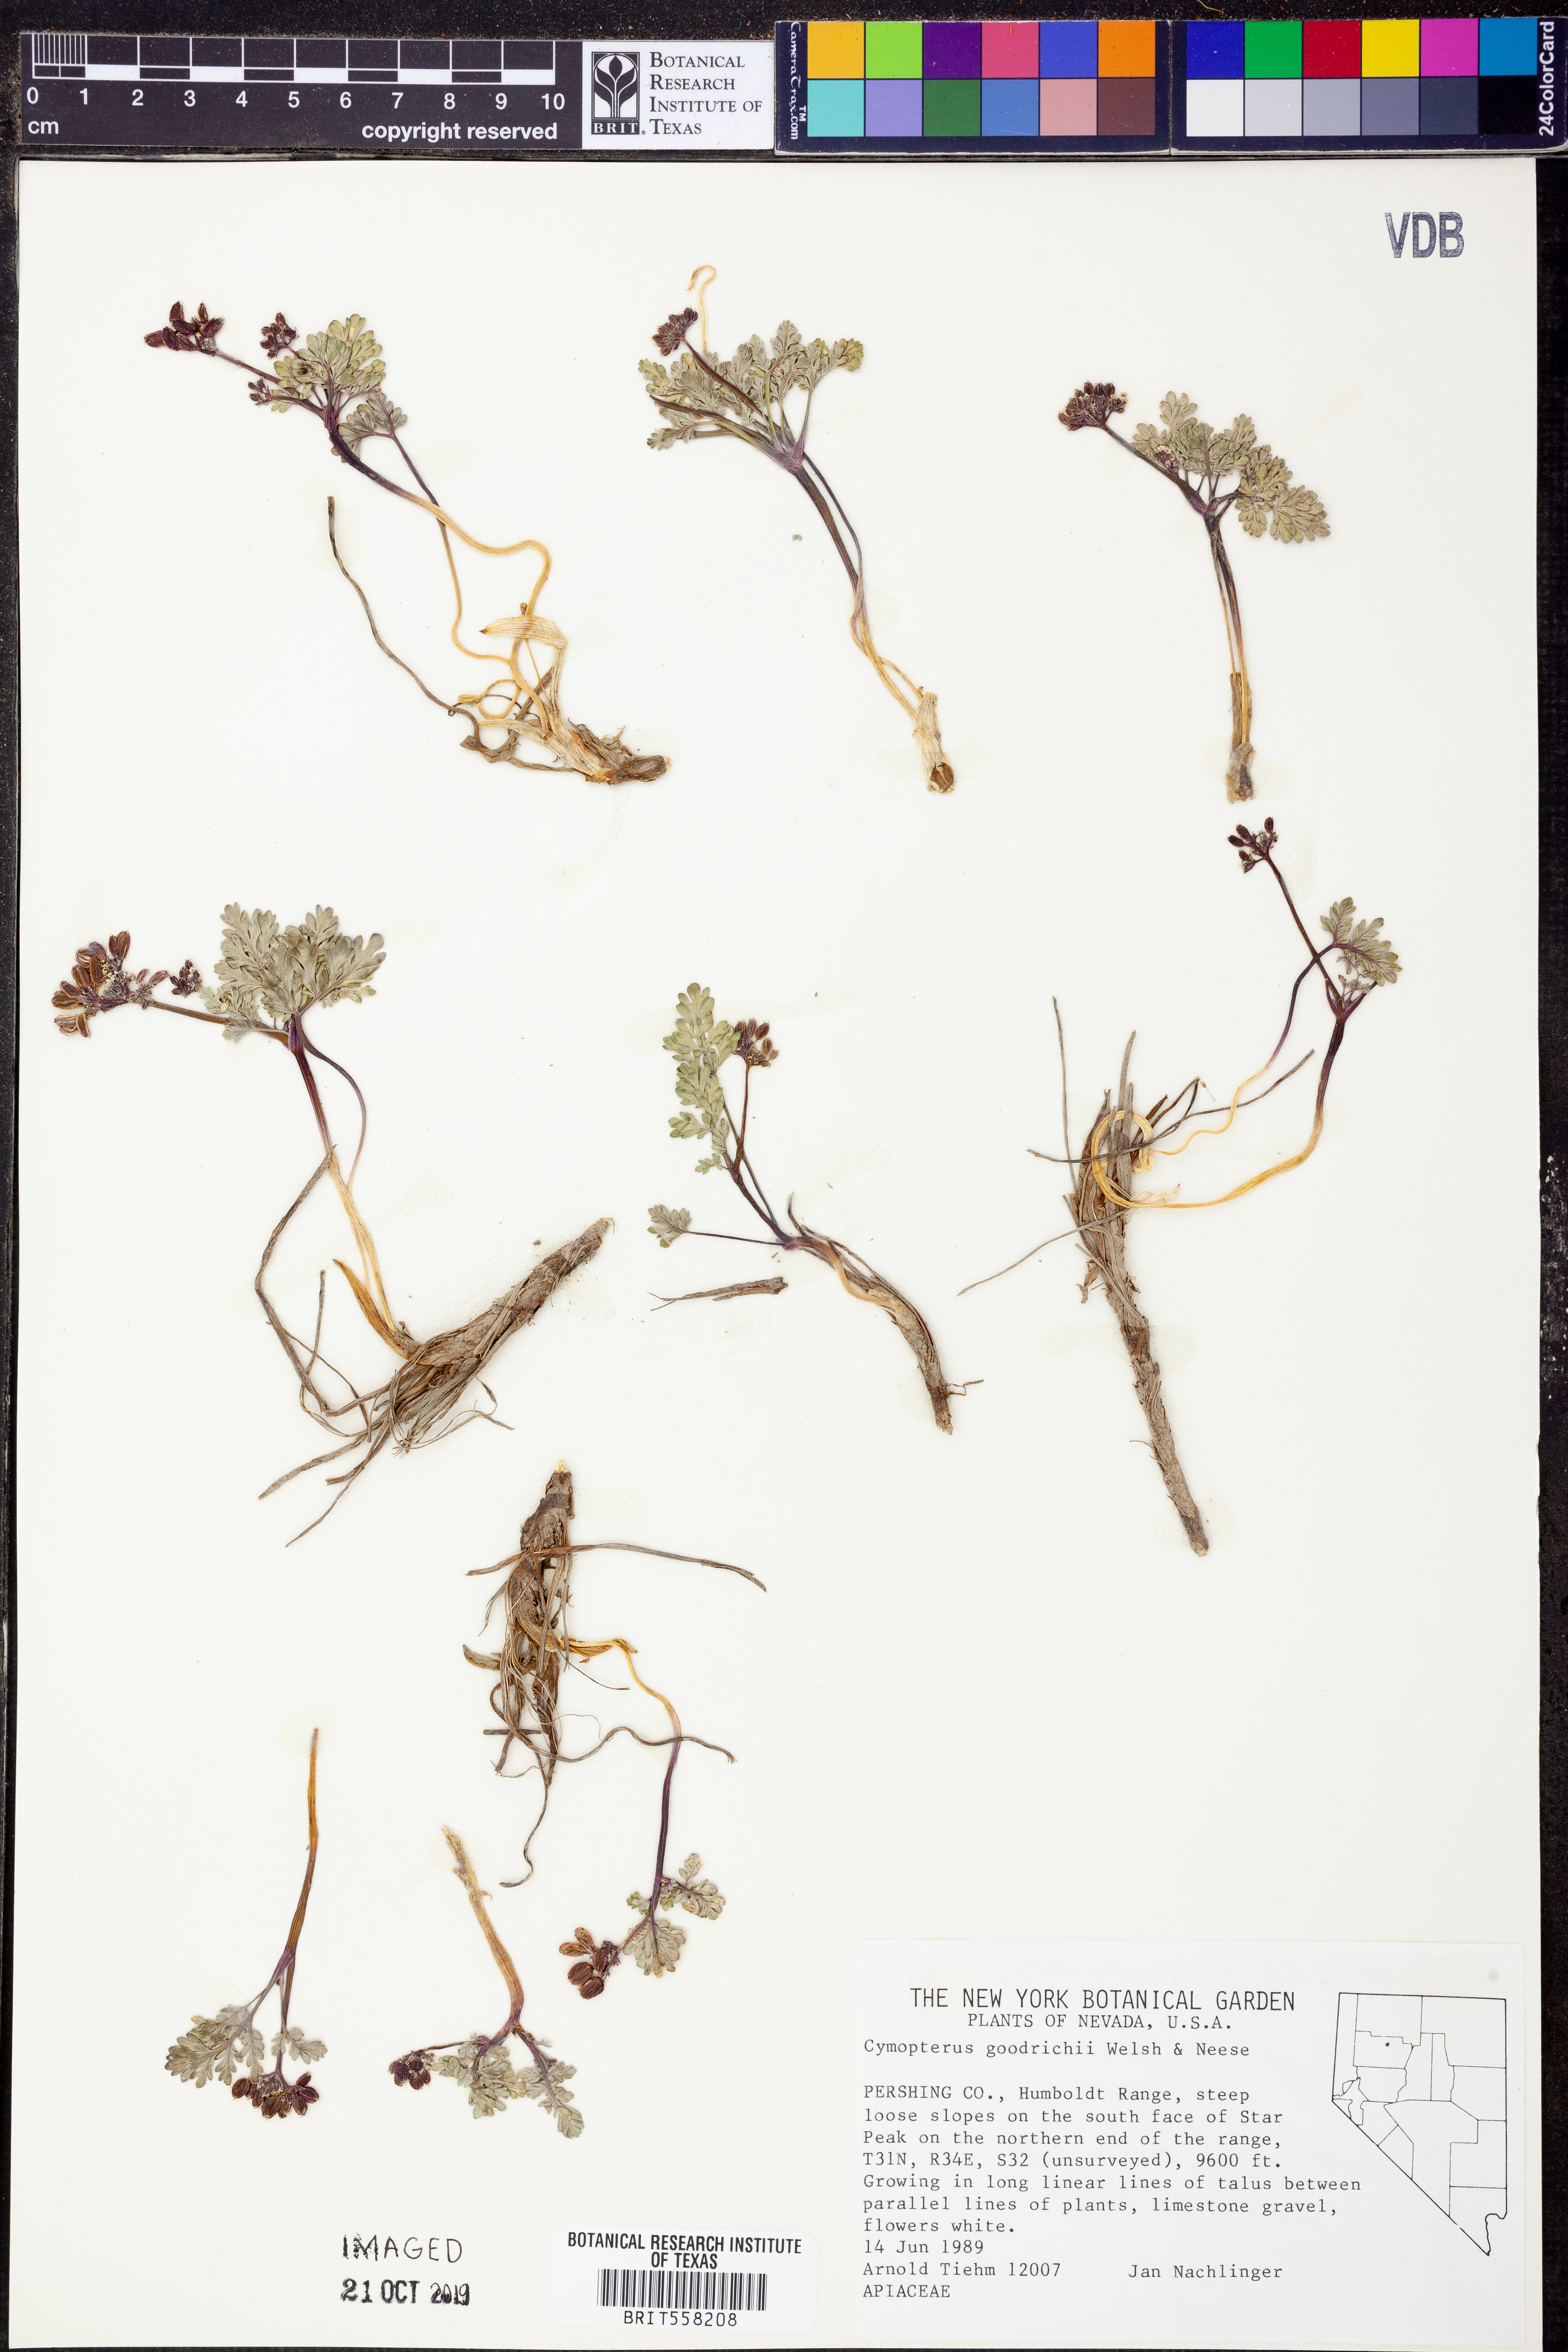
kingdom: Plantae
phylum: Tracheophyta
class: Magnoliopsida
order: Apiales
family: Apiaceae
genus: Cymopterus
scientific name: Cymopterus goodrichii
